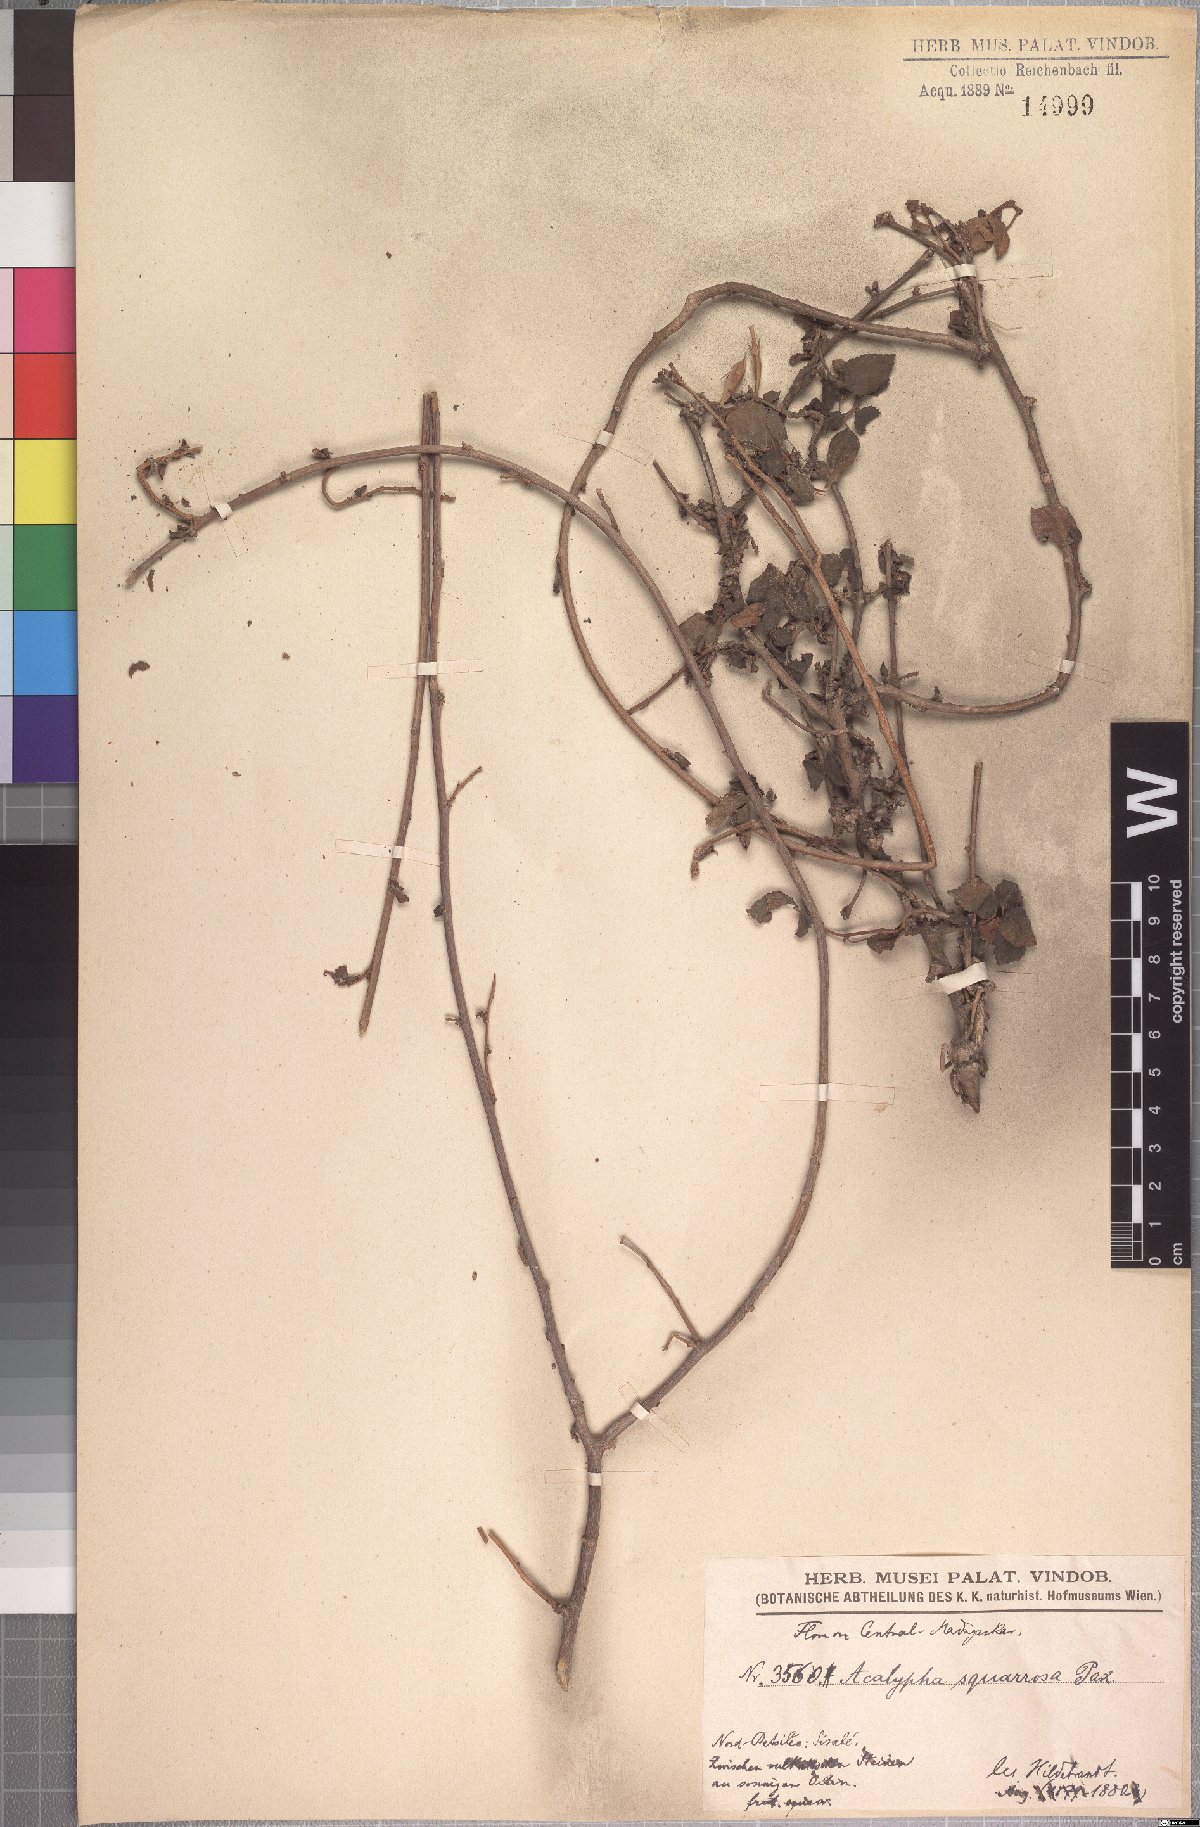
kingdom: Plantae
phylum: Tracheophyta
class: Magnoliopsida
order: Malpighiales
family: Euphorbiaceae
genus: Acalypha
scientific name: Acalypha spachiana
